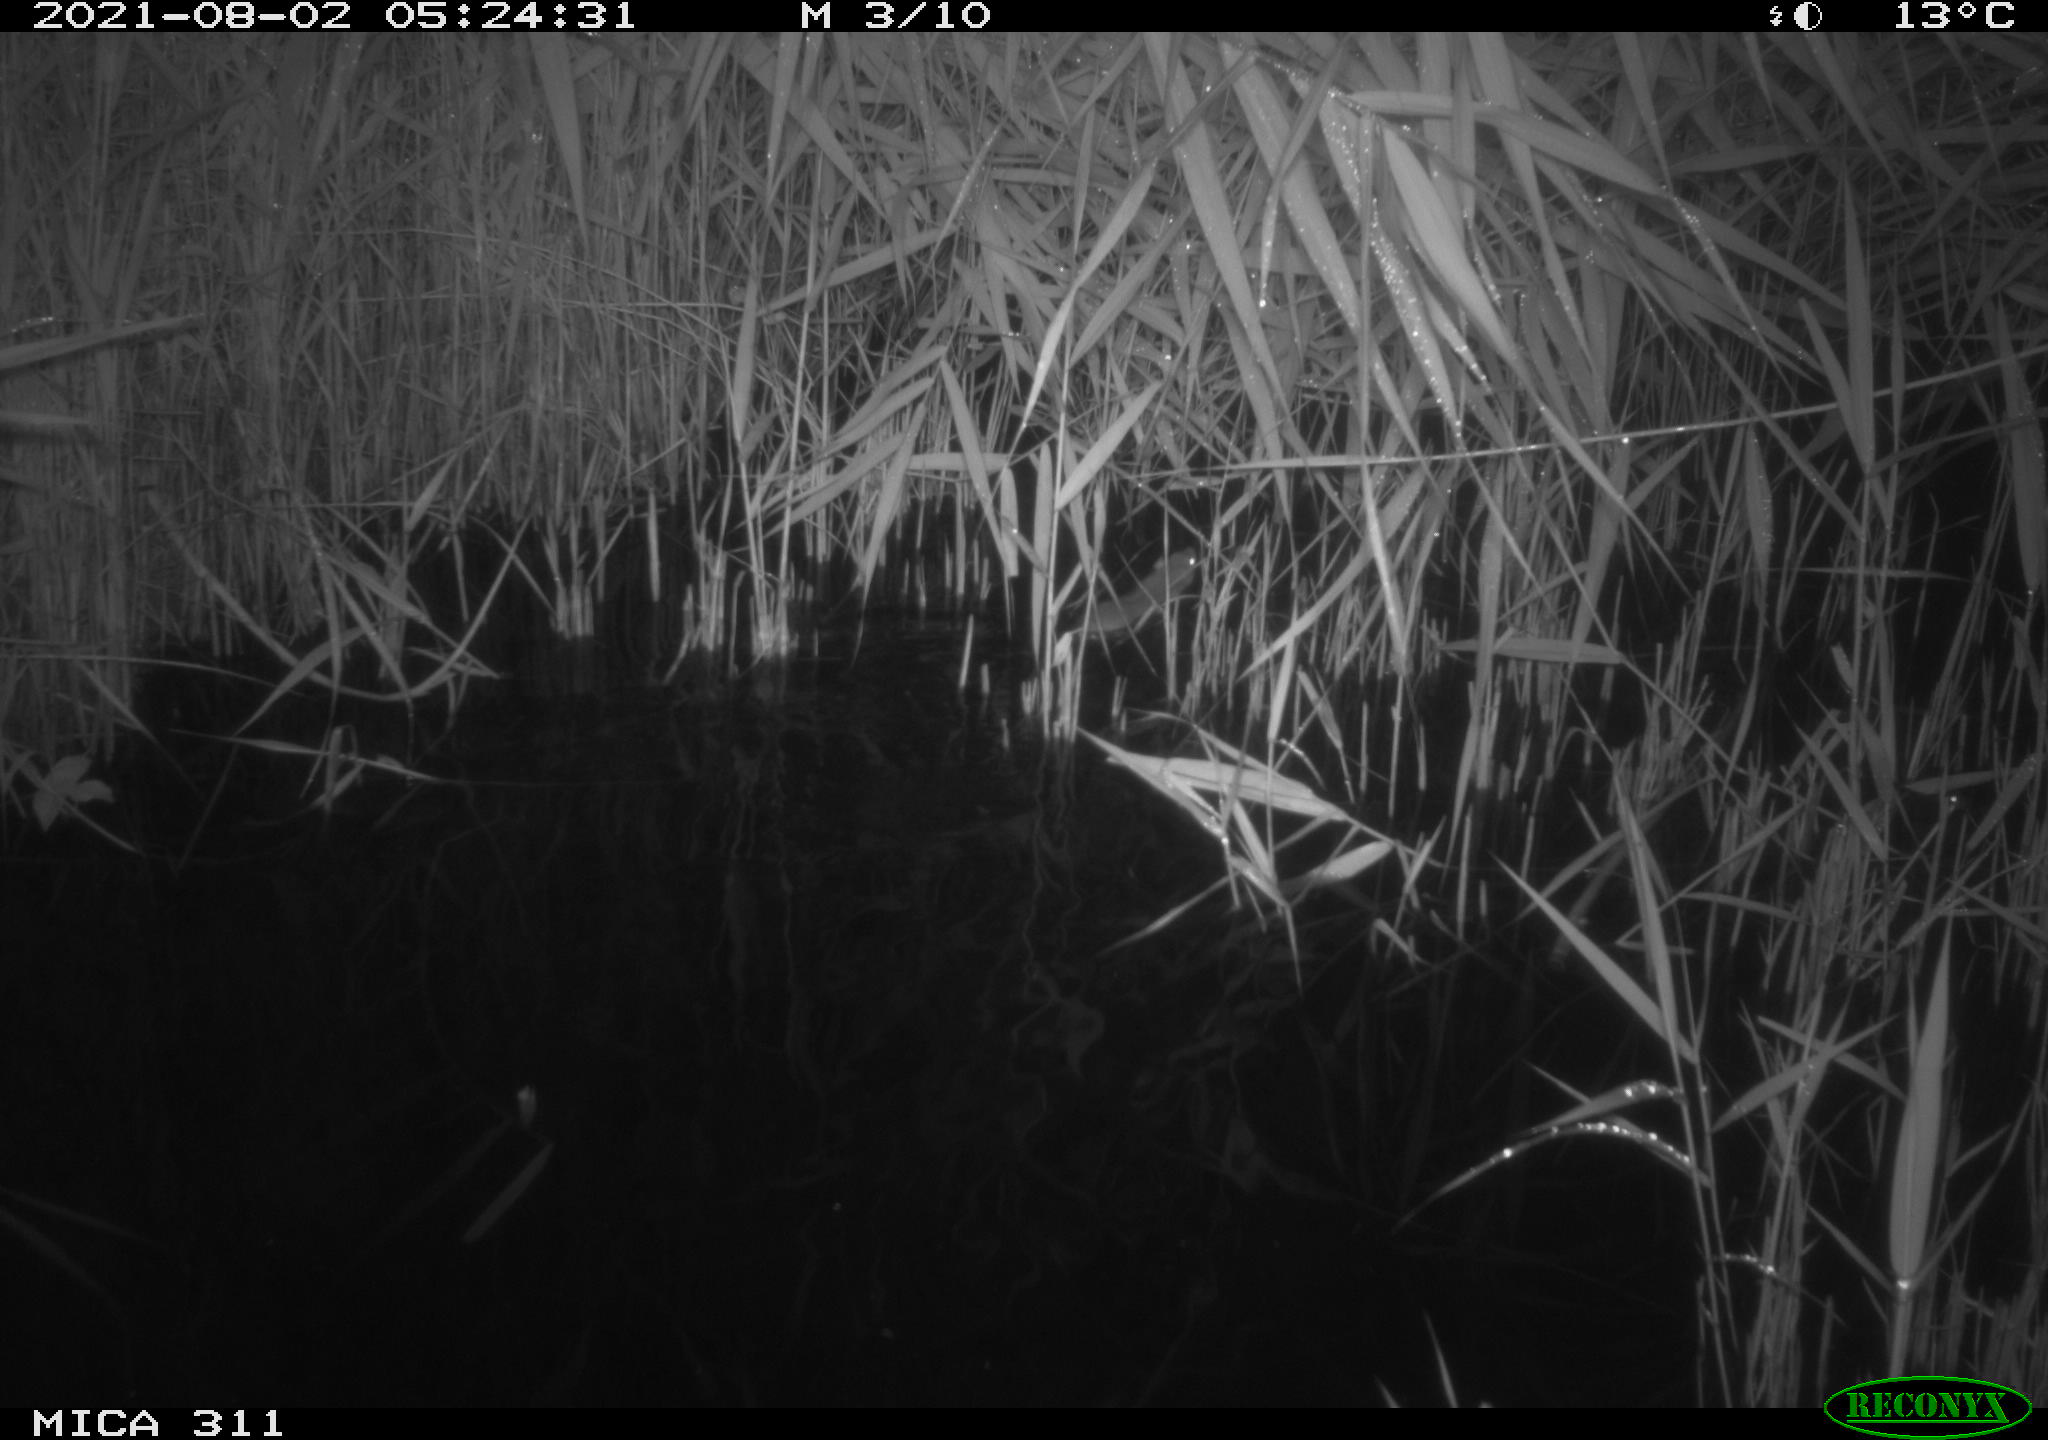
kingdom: Animalia
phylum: Chordata
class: Mammalia
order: Rodentia
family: Muridae
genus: Rattus
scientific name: Rattus norvegicus
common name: Brown rat
